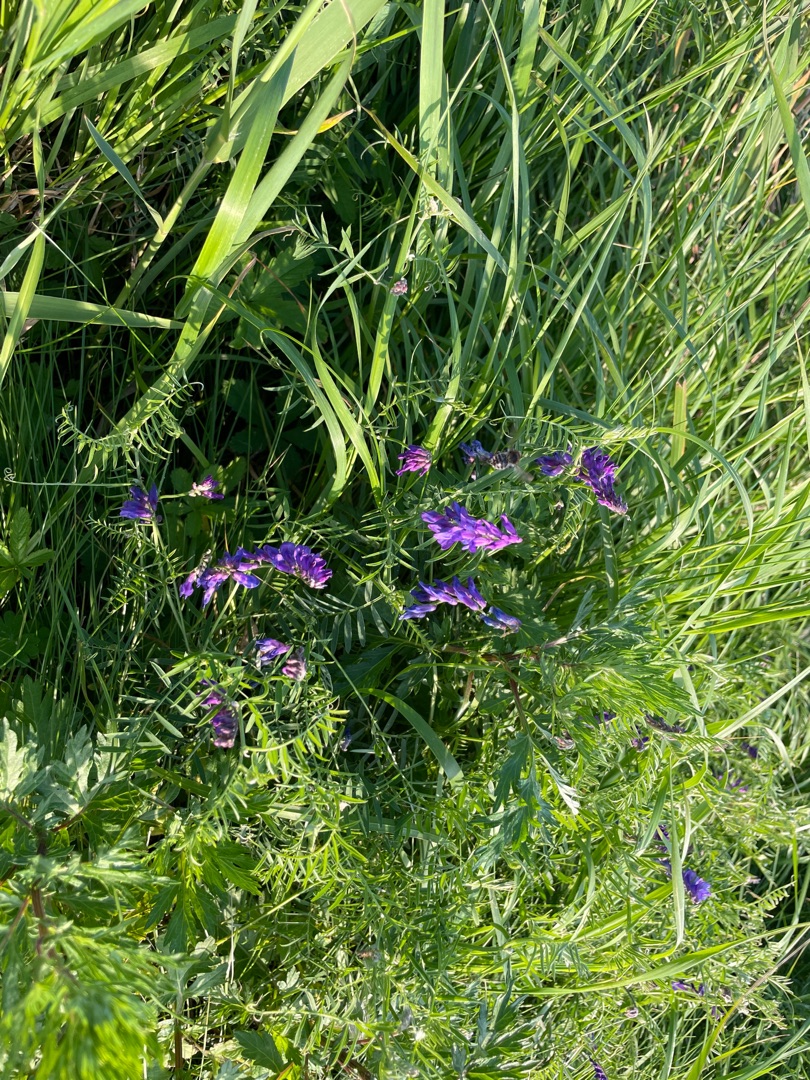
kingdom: Plantae
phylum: Tracheophyta
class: Magnoliopsida
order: Fabales
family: Fabaceae
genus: Vicia
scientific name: Vicia cracca
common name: Muse-vikke
